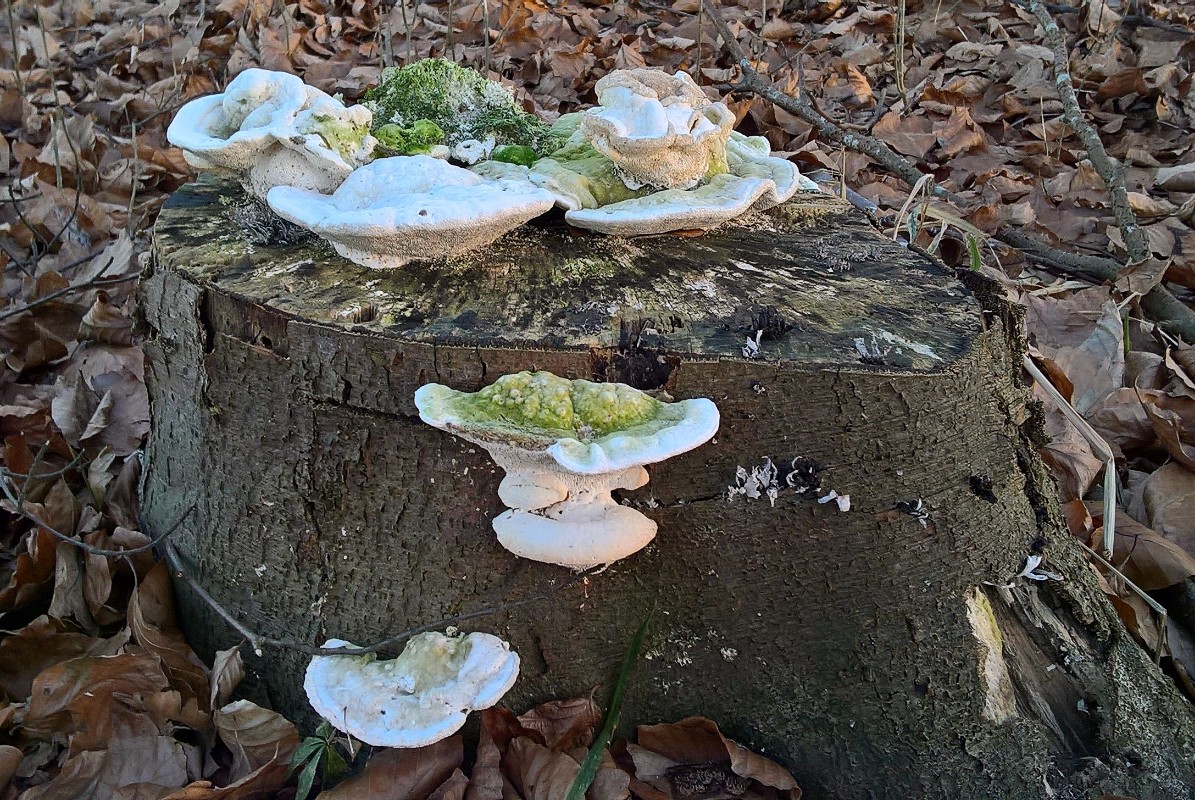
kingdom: Fungi
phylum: Basidiomycota
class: Agaricomycetes
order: Polyporales
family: Polyporaceae
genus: Trametes
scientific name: Trametes gibbosa
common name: puklet læderporesvamp
